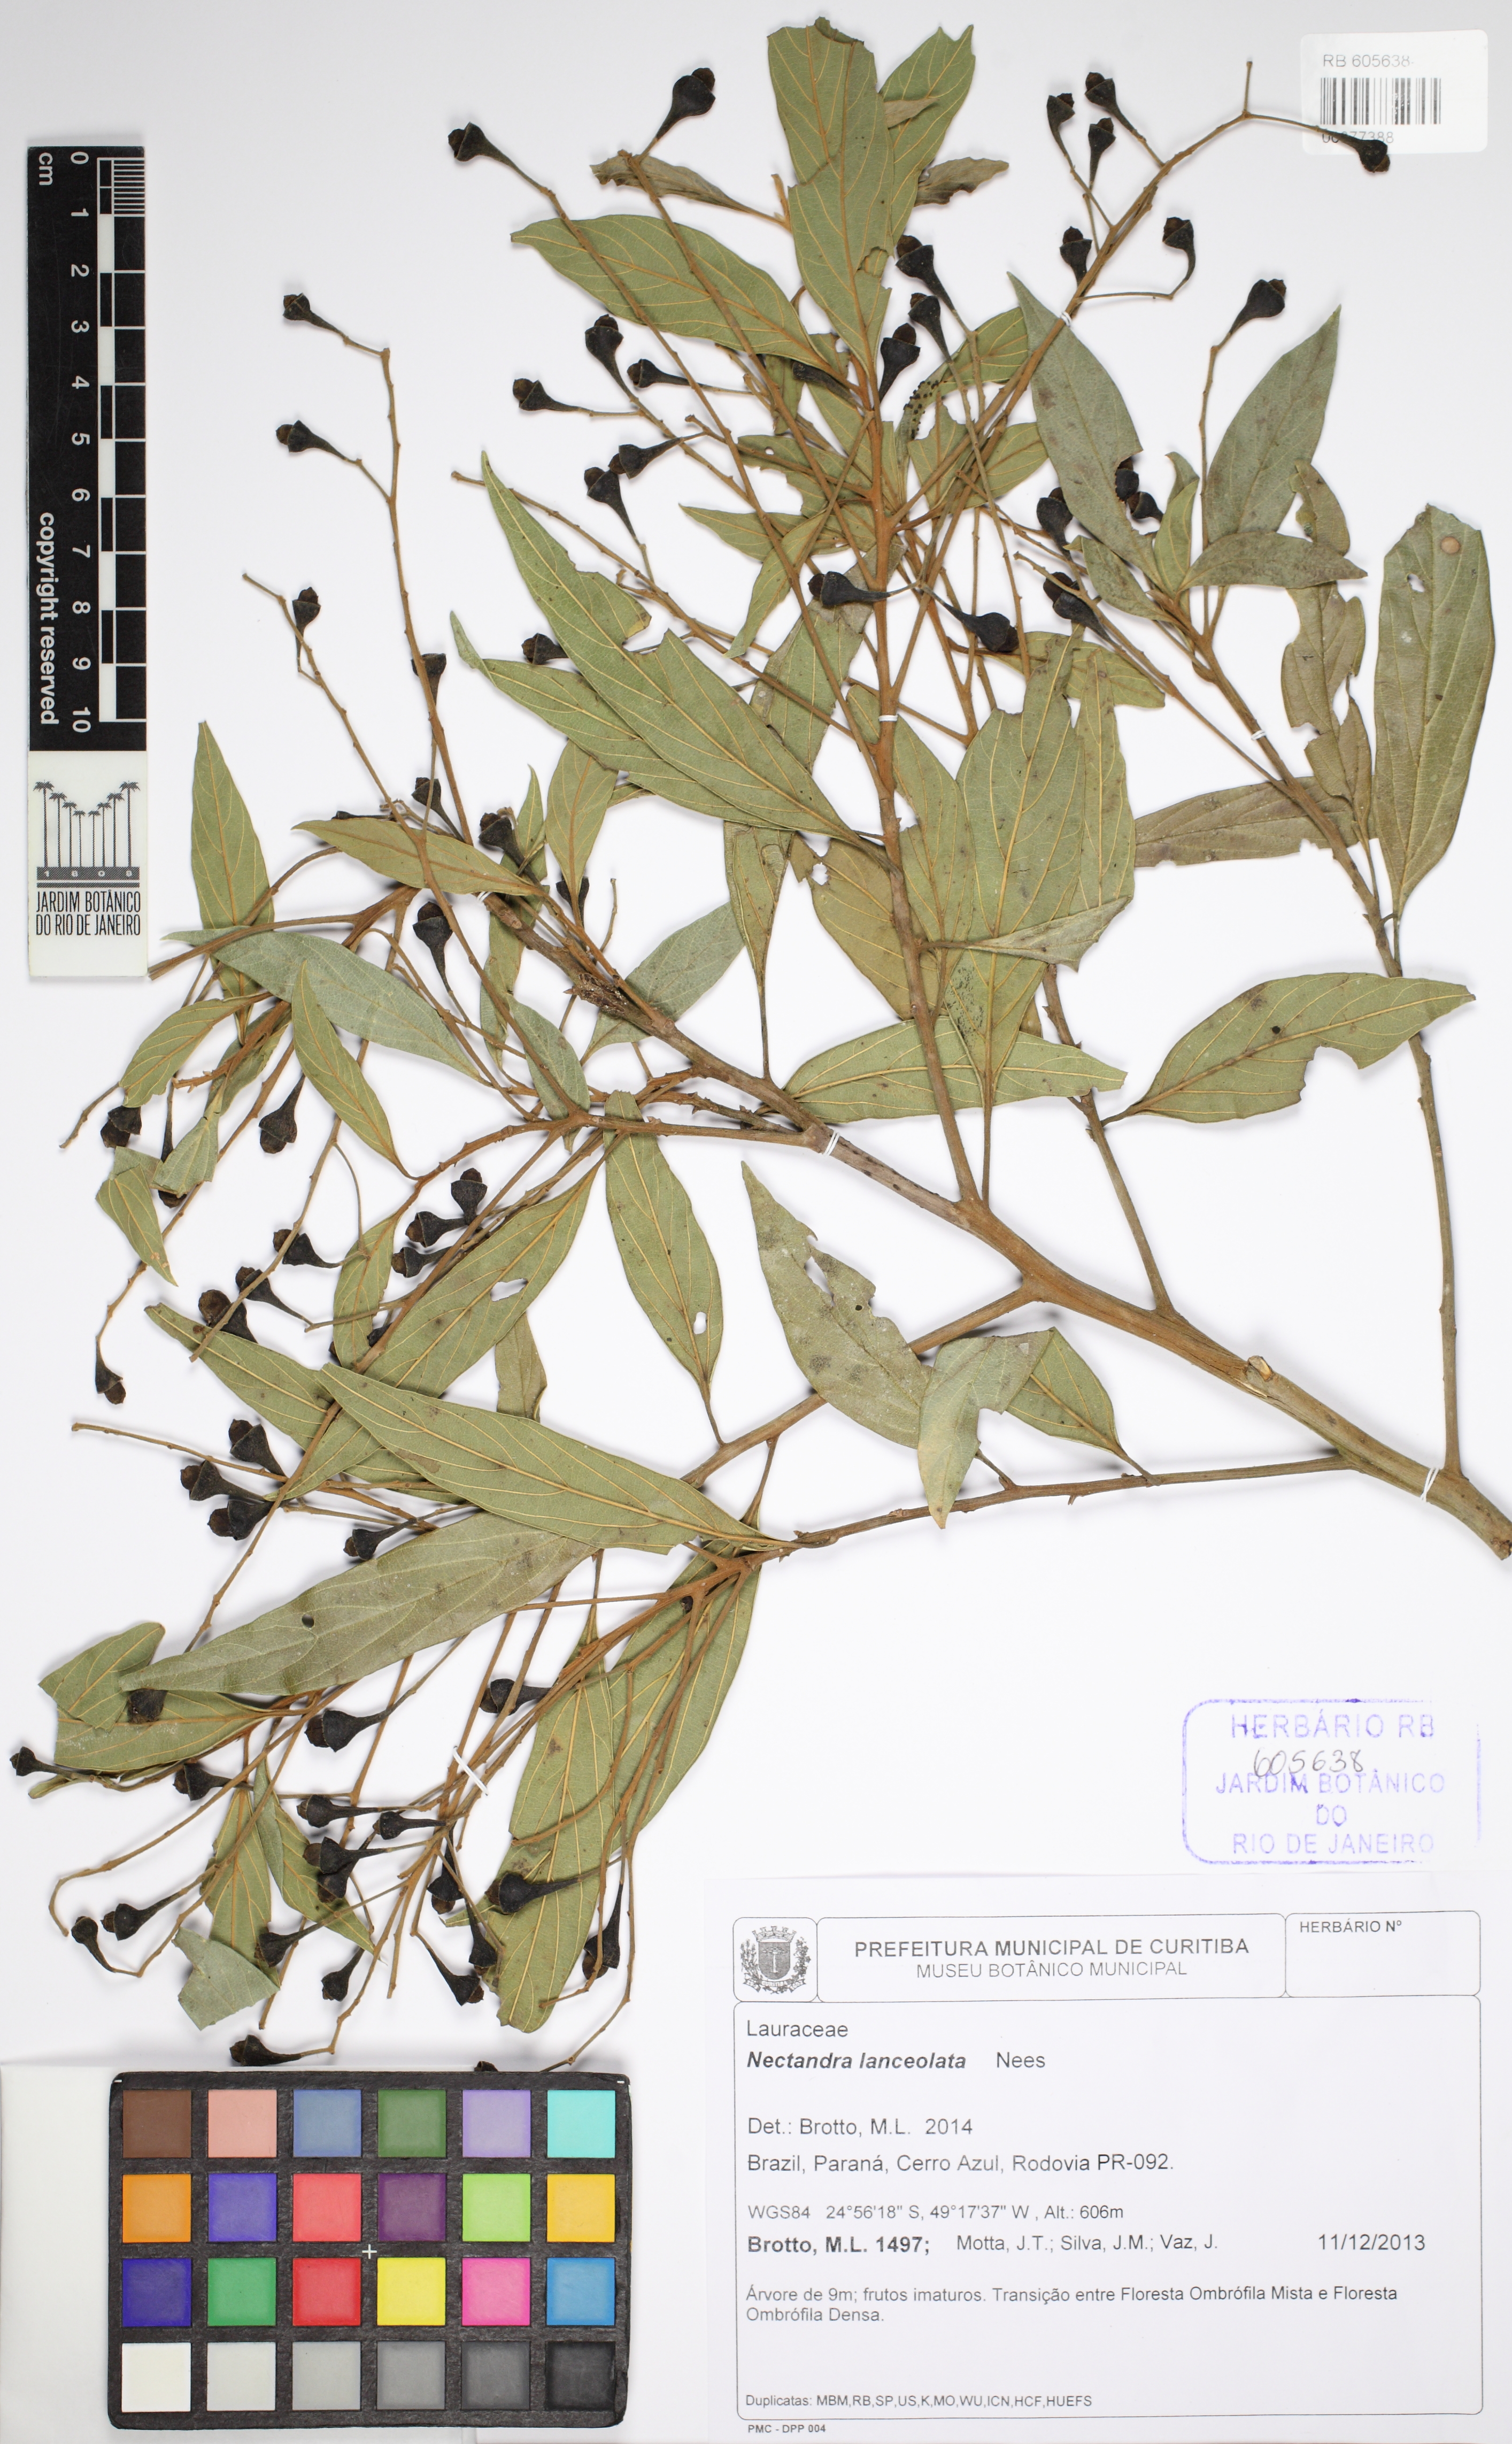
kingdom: Plantae
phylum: Tracheophyta
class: Magnoliopsida
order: Laurales
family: Lauraceae
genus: Nectandra
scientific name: Nectandra lanceolata
